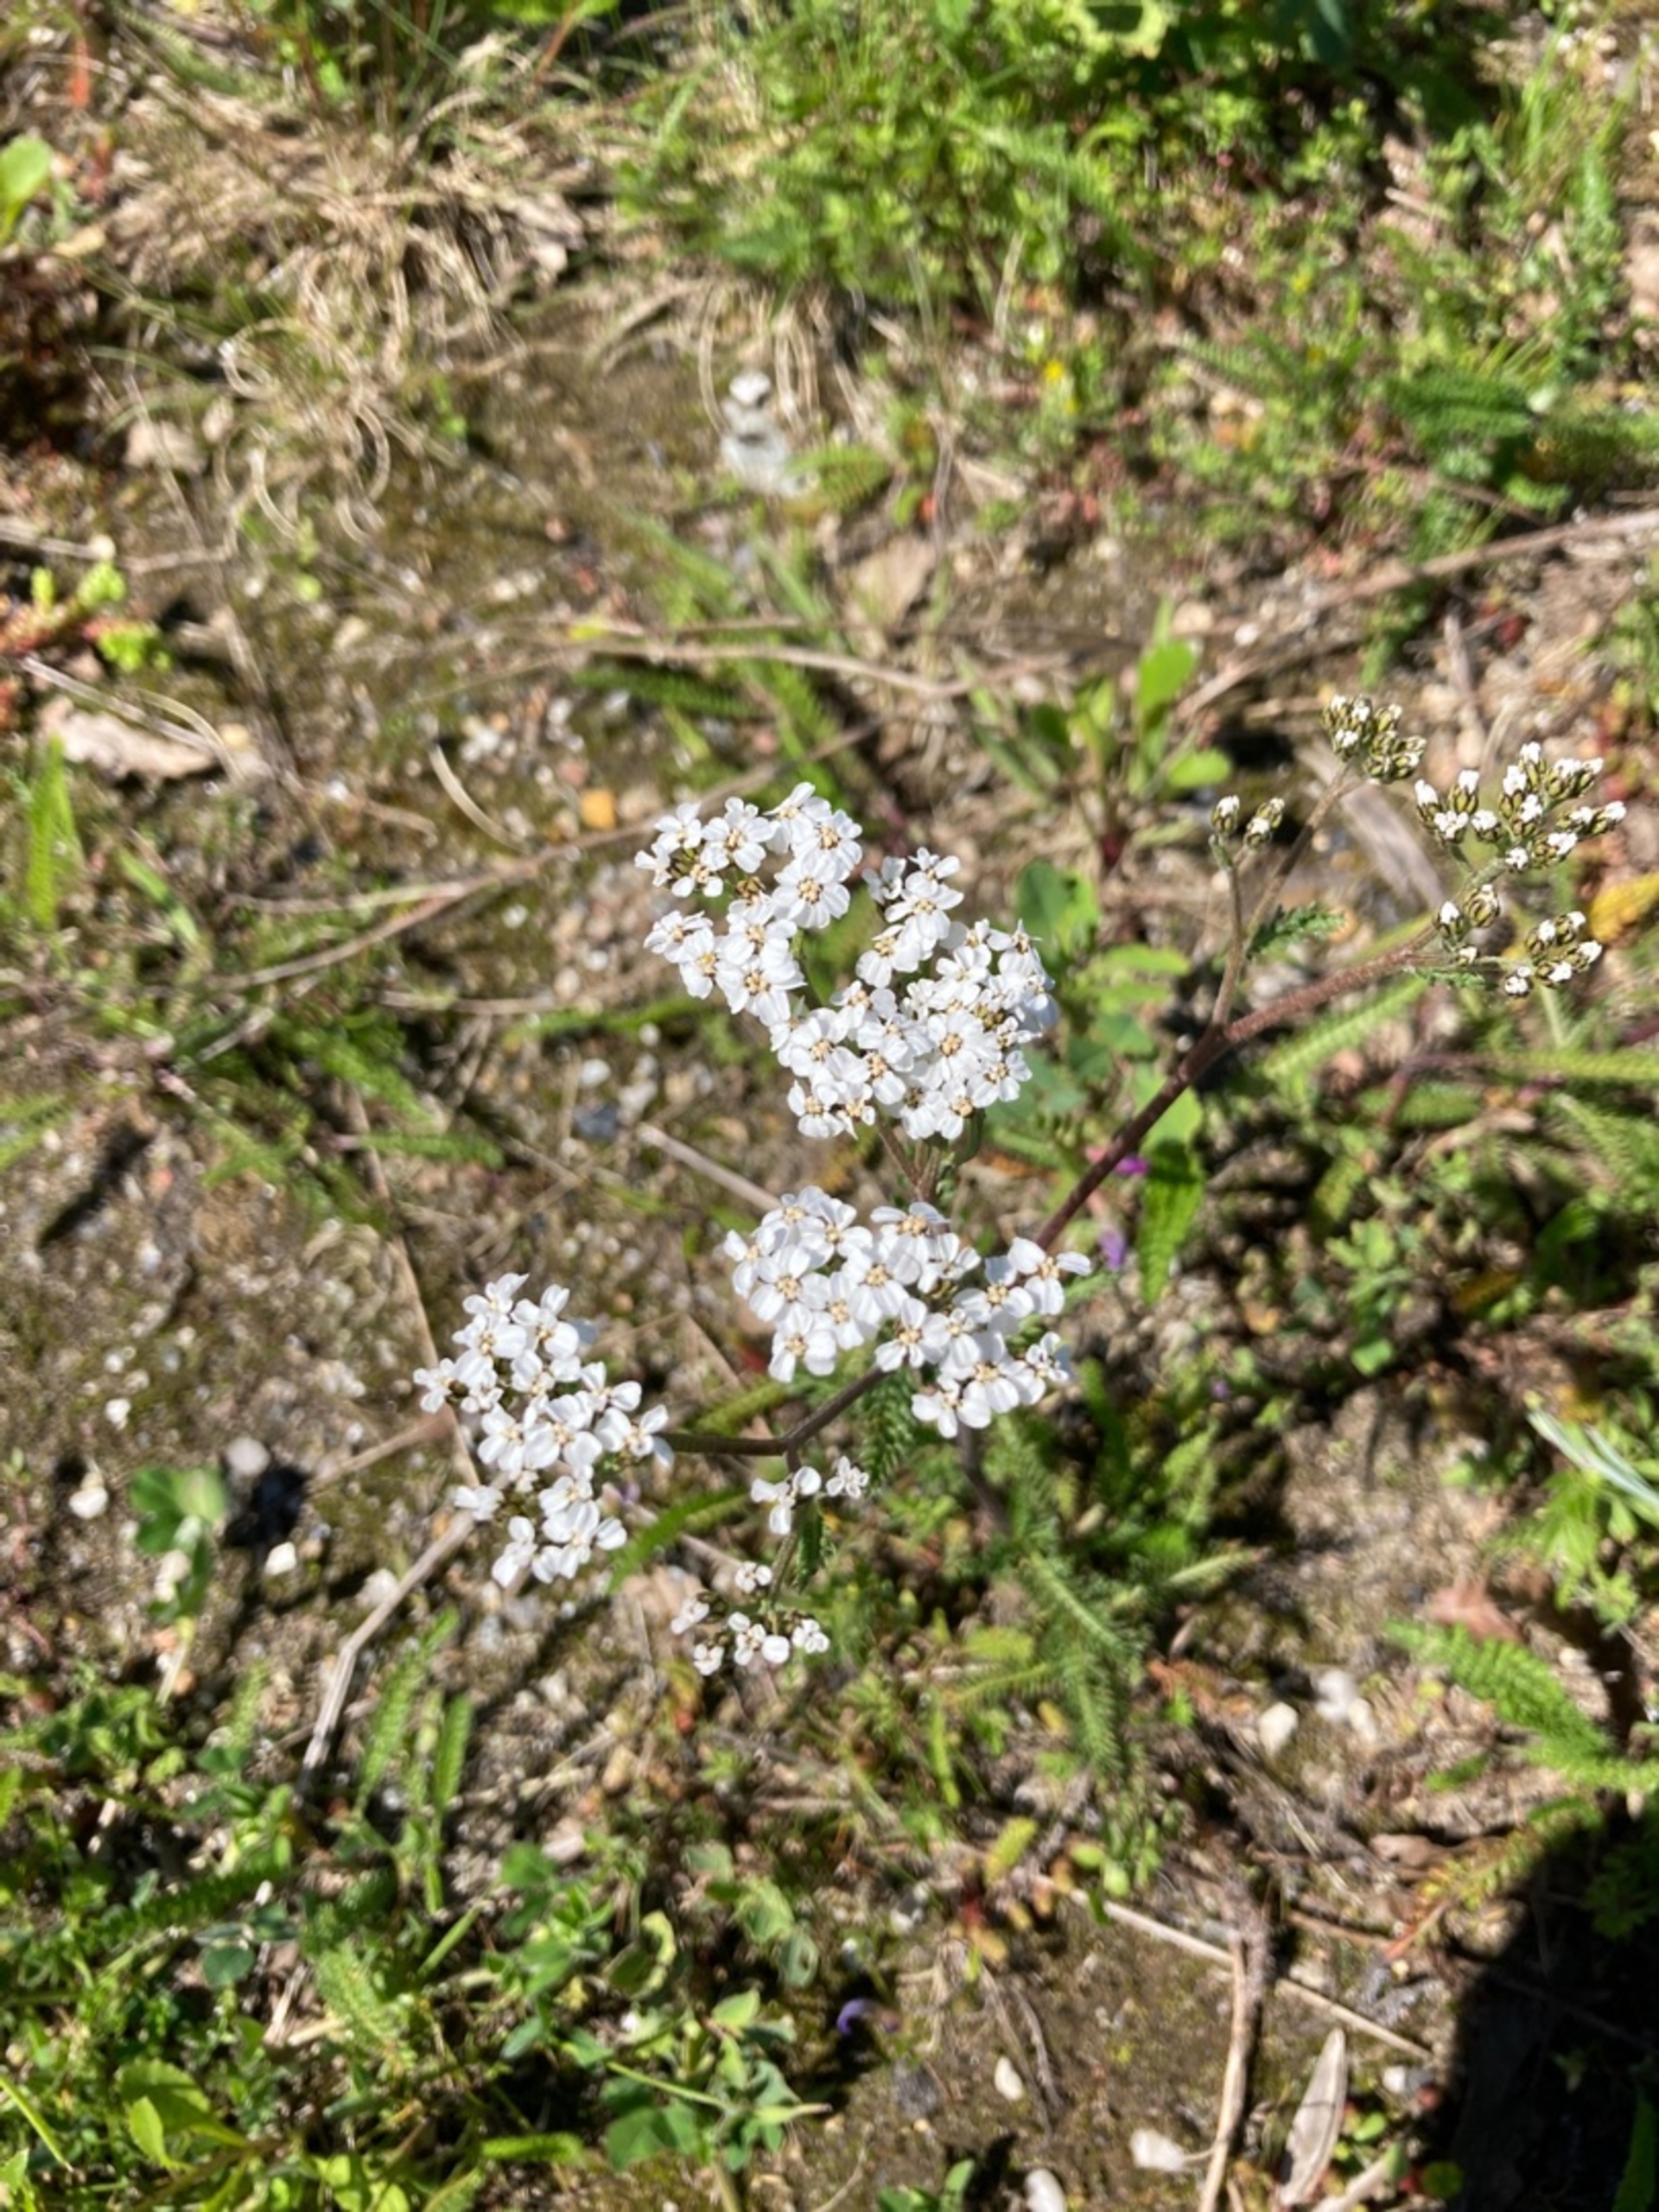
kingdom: Plantae
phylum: Tracheophyta
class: Magnoliopsida
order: Asterales
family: Asteraceae
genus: Achillea
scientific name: Achillea millefolium
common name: Almindelig røllike
